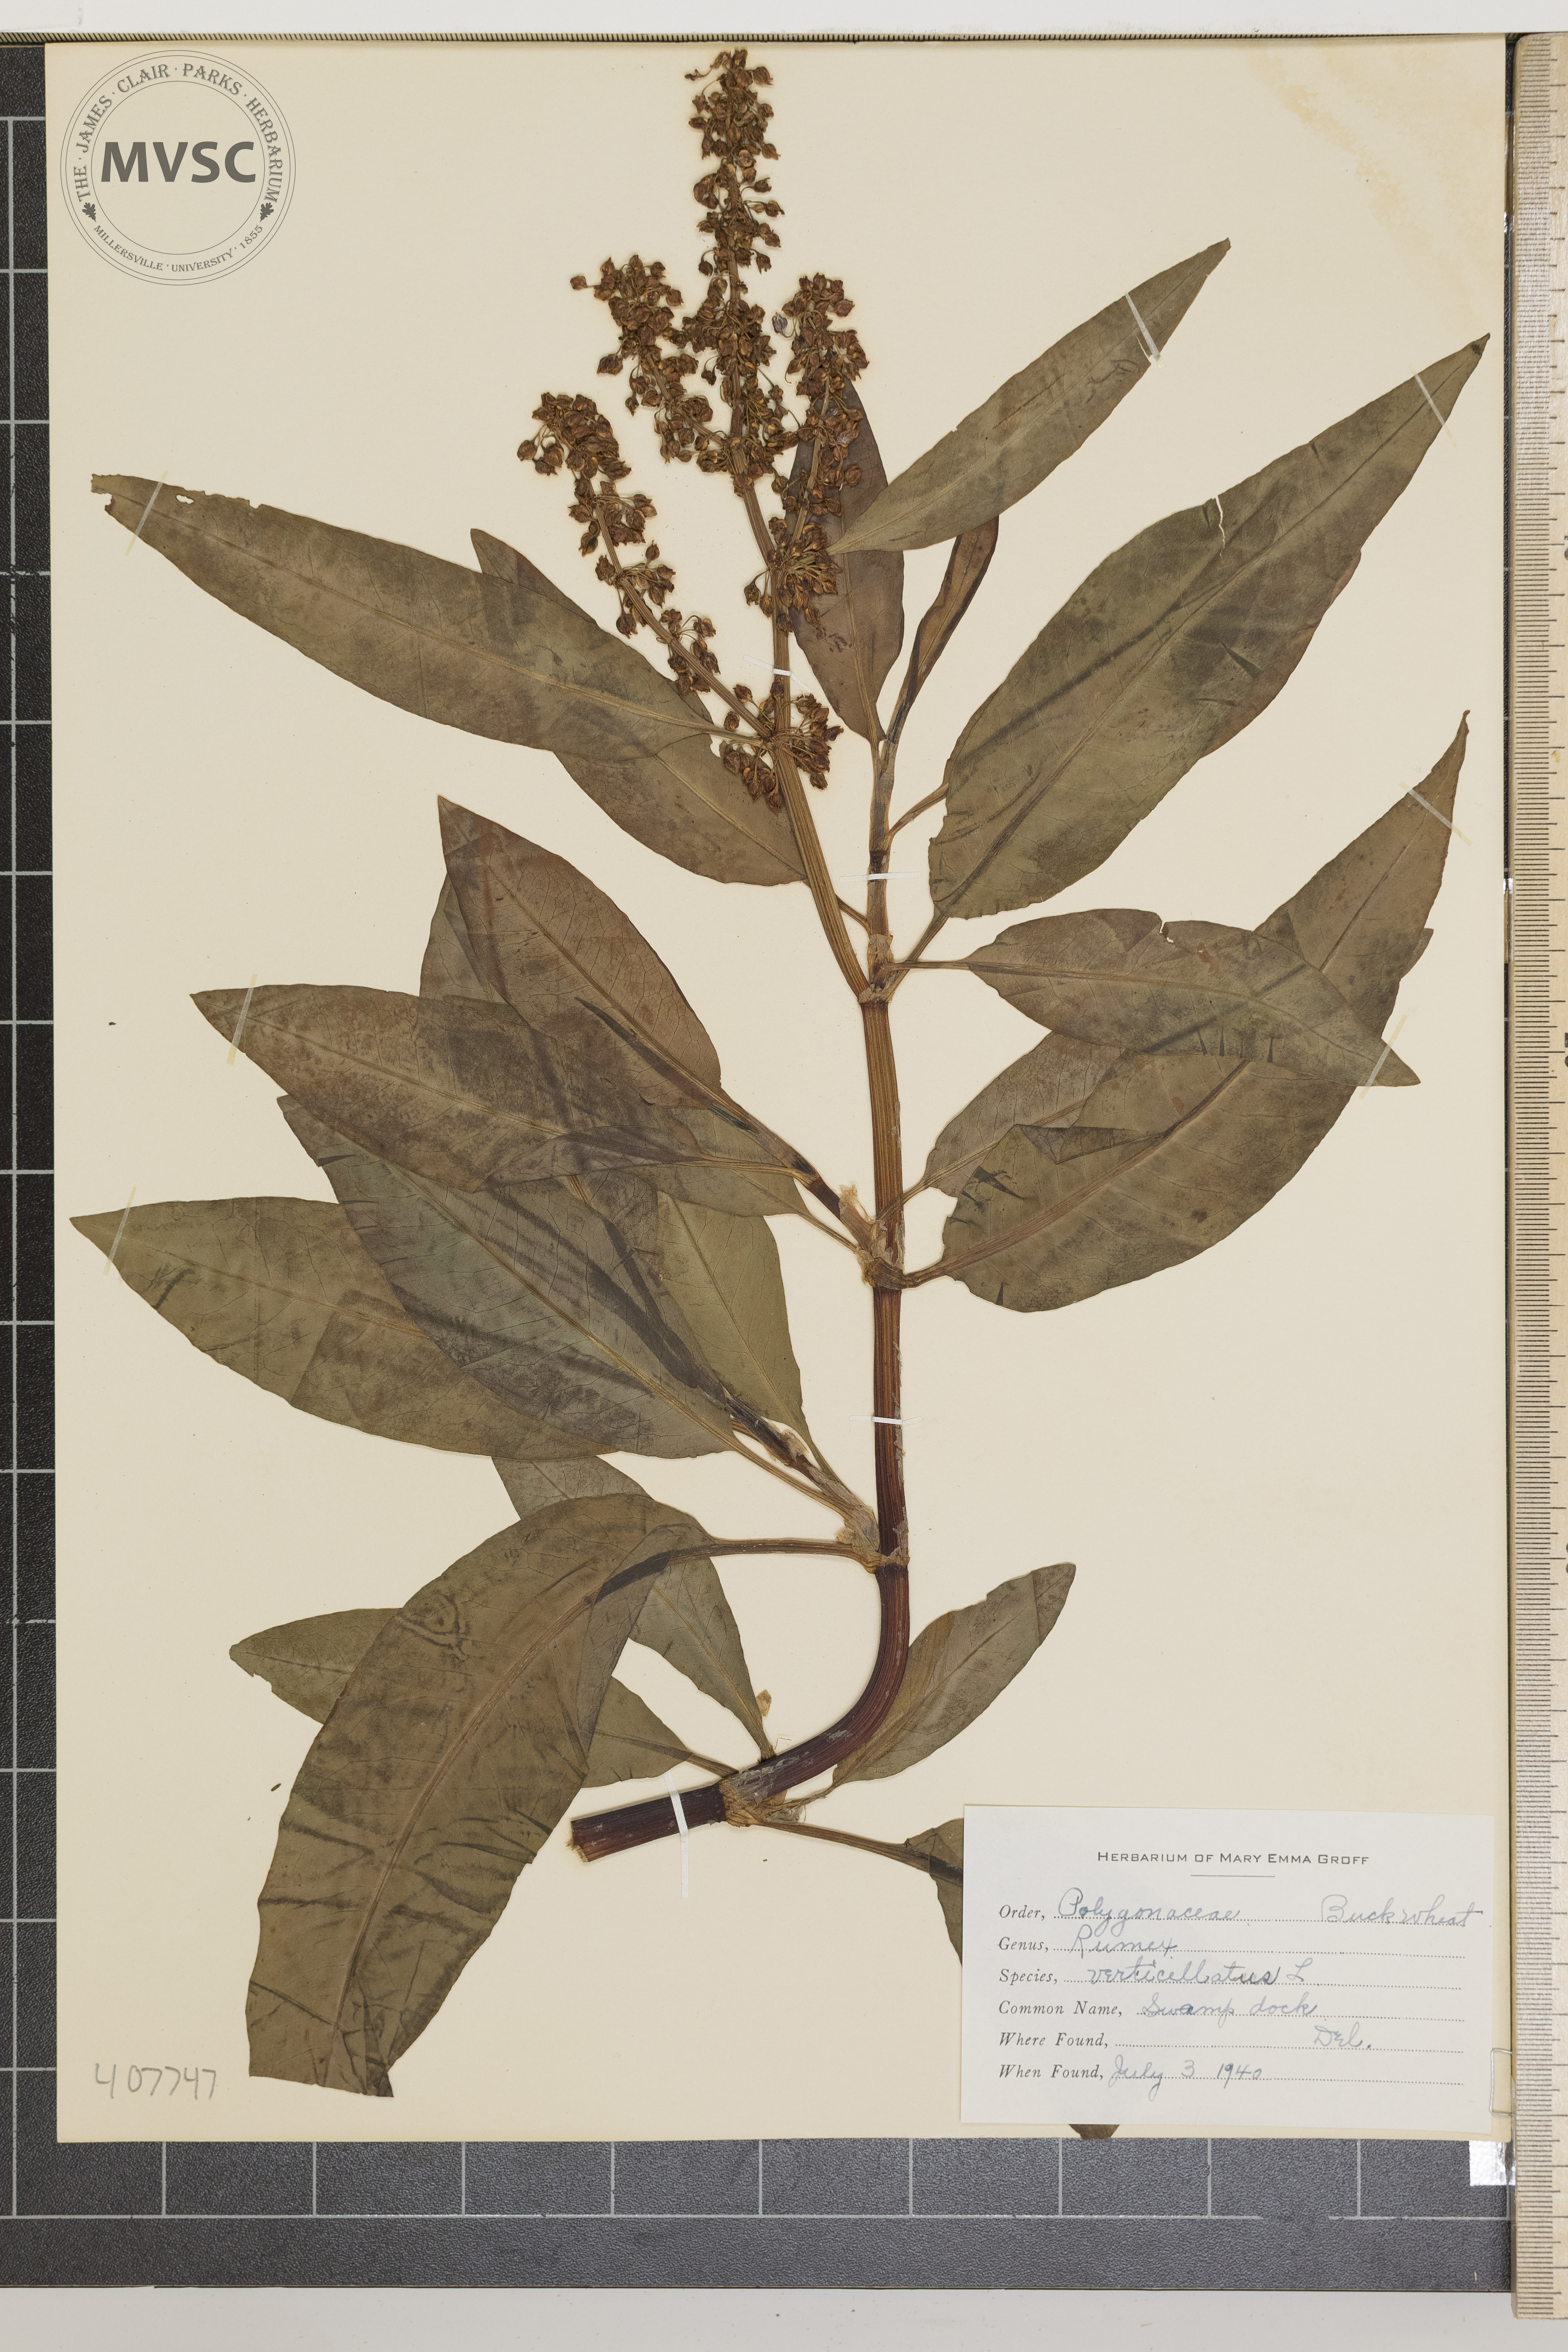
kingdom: Plantae
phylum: Tracheophyta
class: Magnoliopsida
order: Caryophyllales
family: Polygonaceae
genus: Rumex
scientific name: Rumex verticillatus
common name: Swamp Dock
